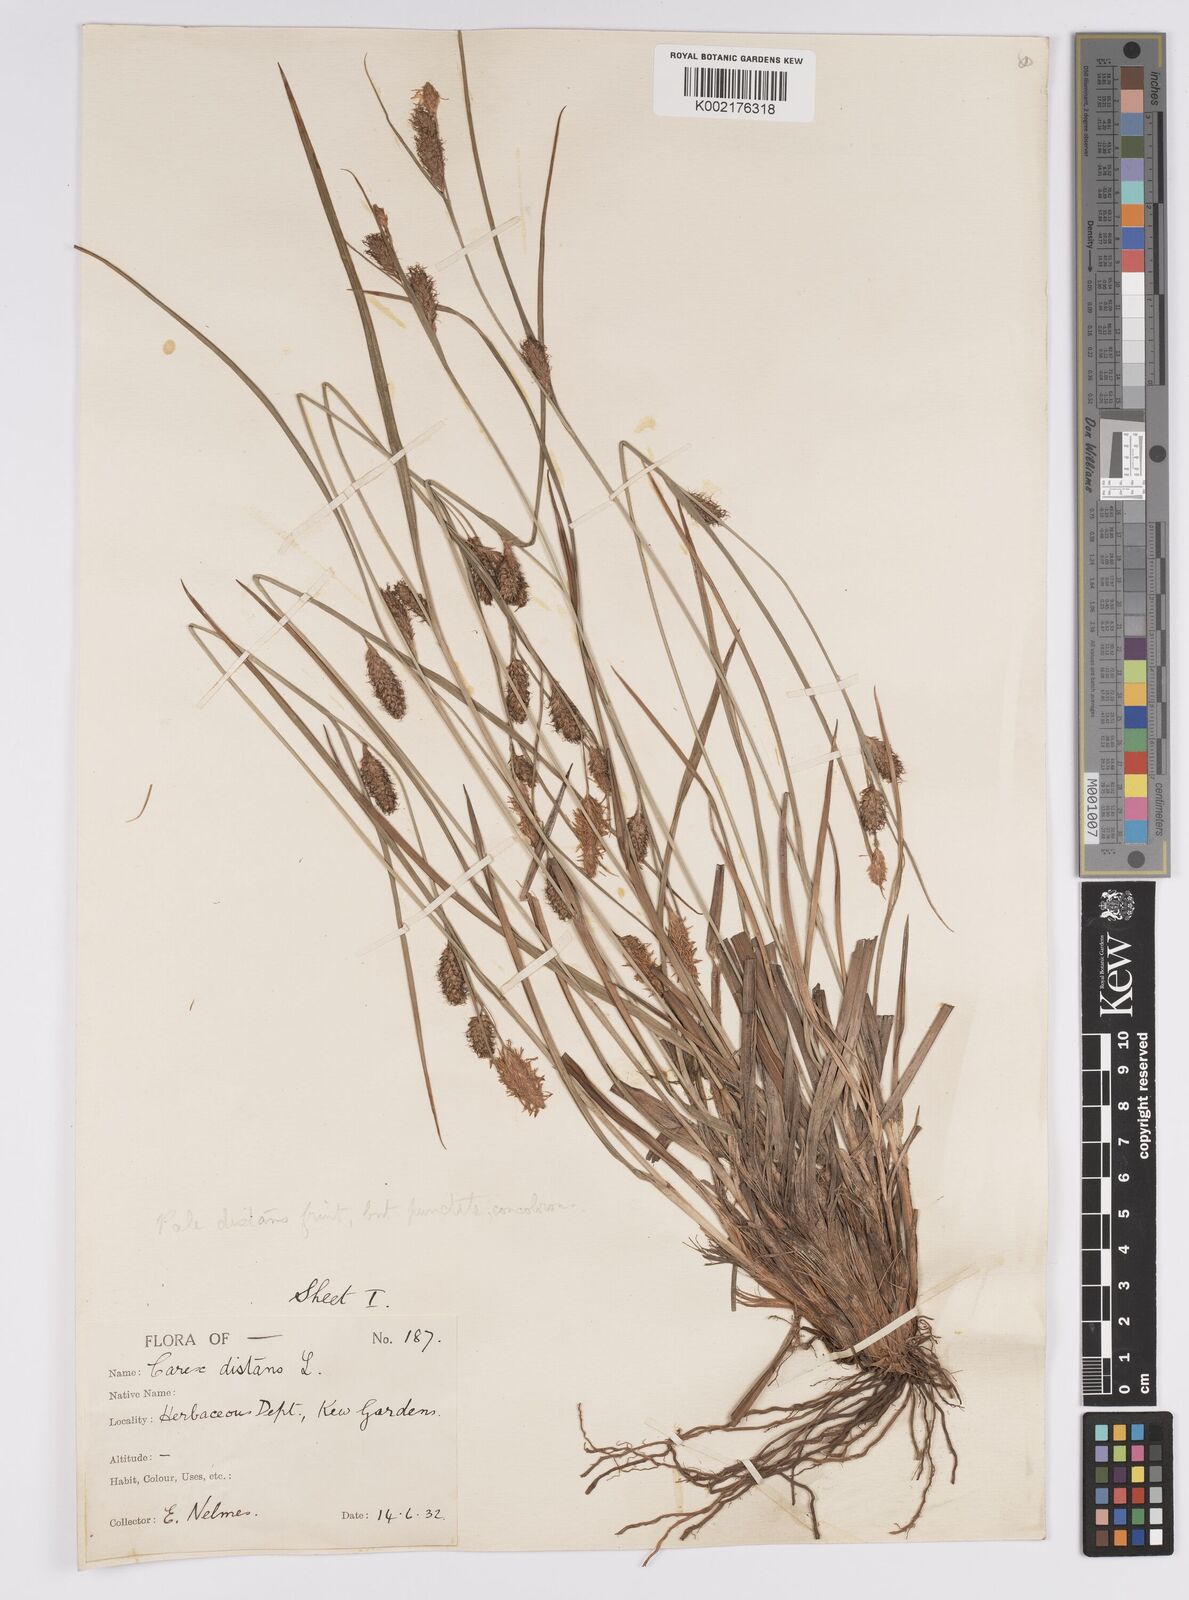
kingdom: Plantae
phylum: Tracheophyta
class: Liliopsida
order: Poales
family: Cyperaceae
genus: Carex
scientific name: Carex distans
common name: Distant sedge
